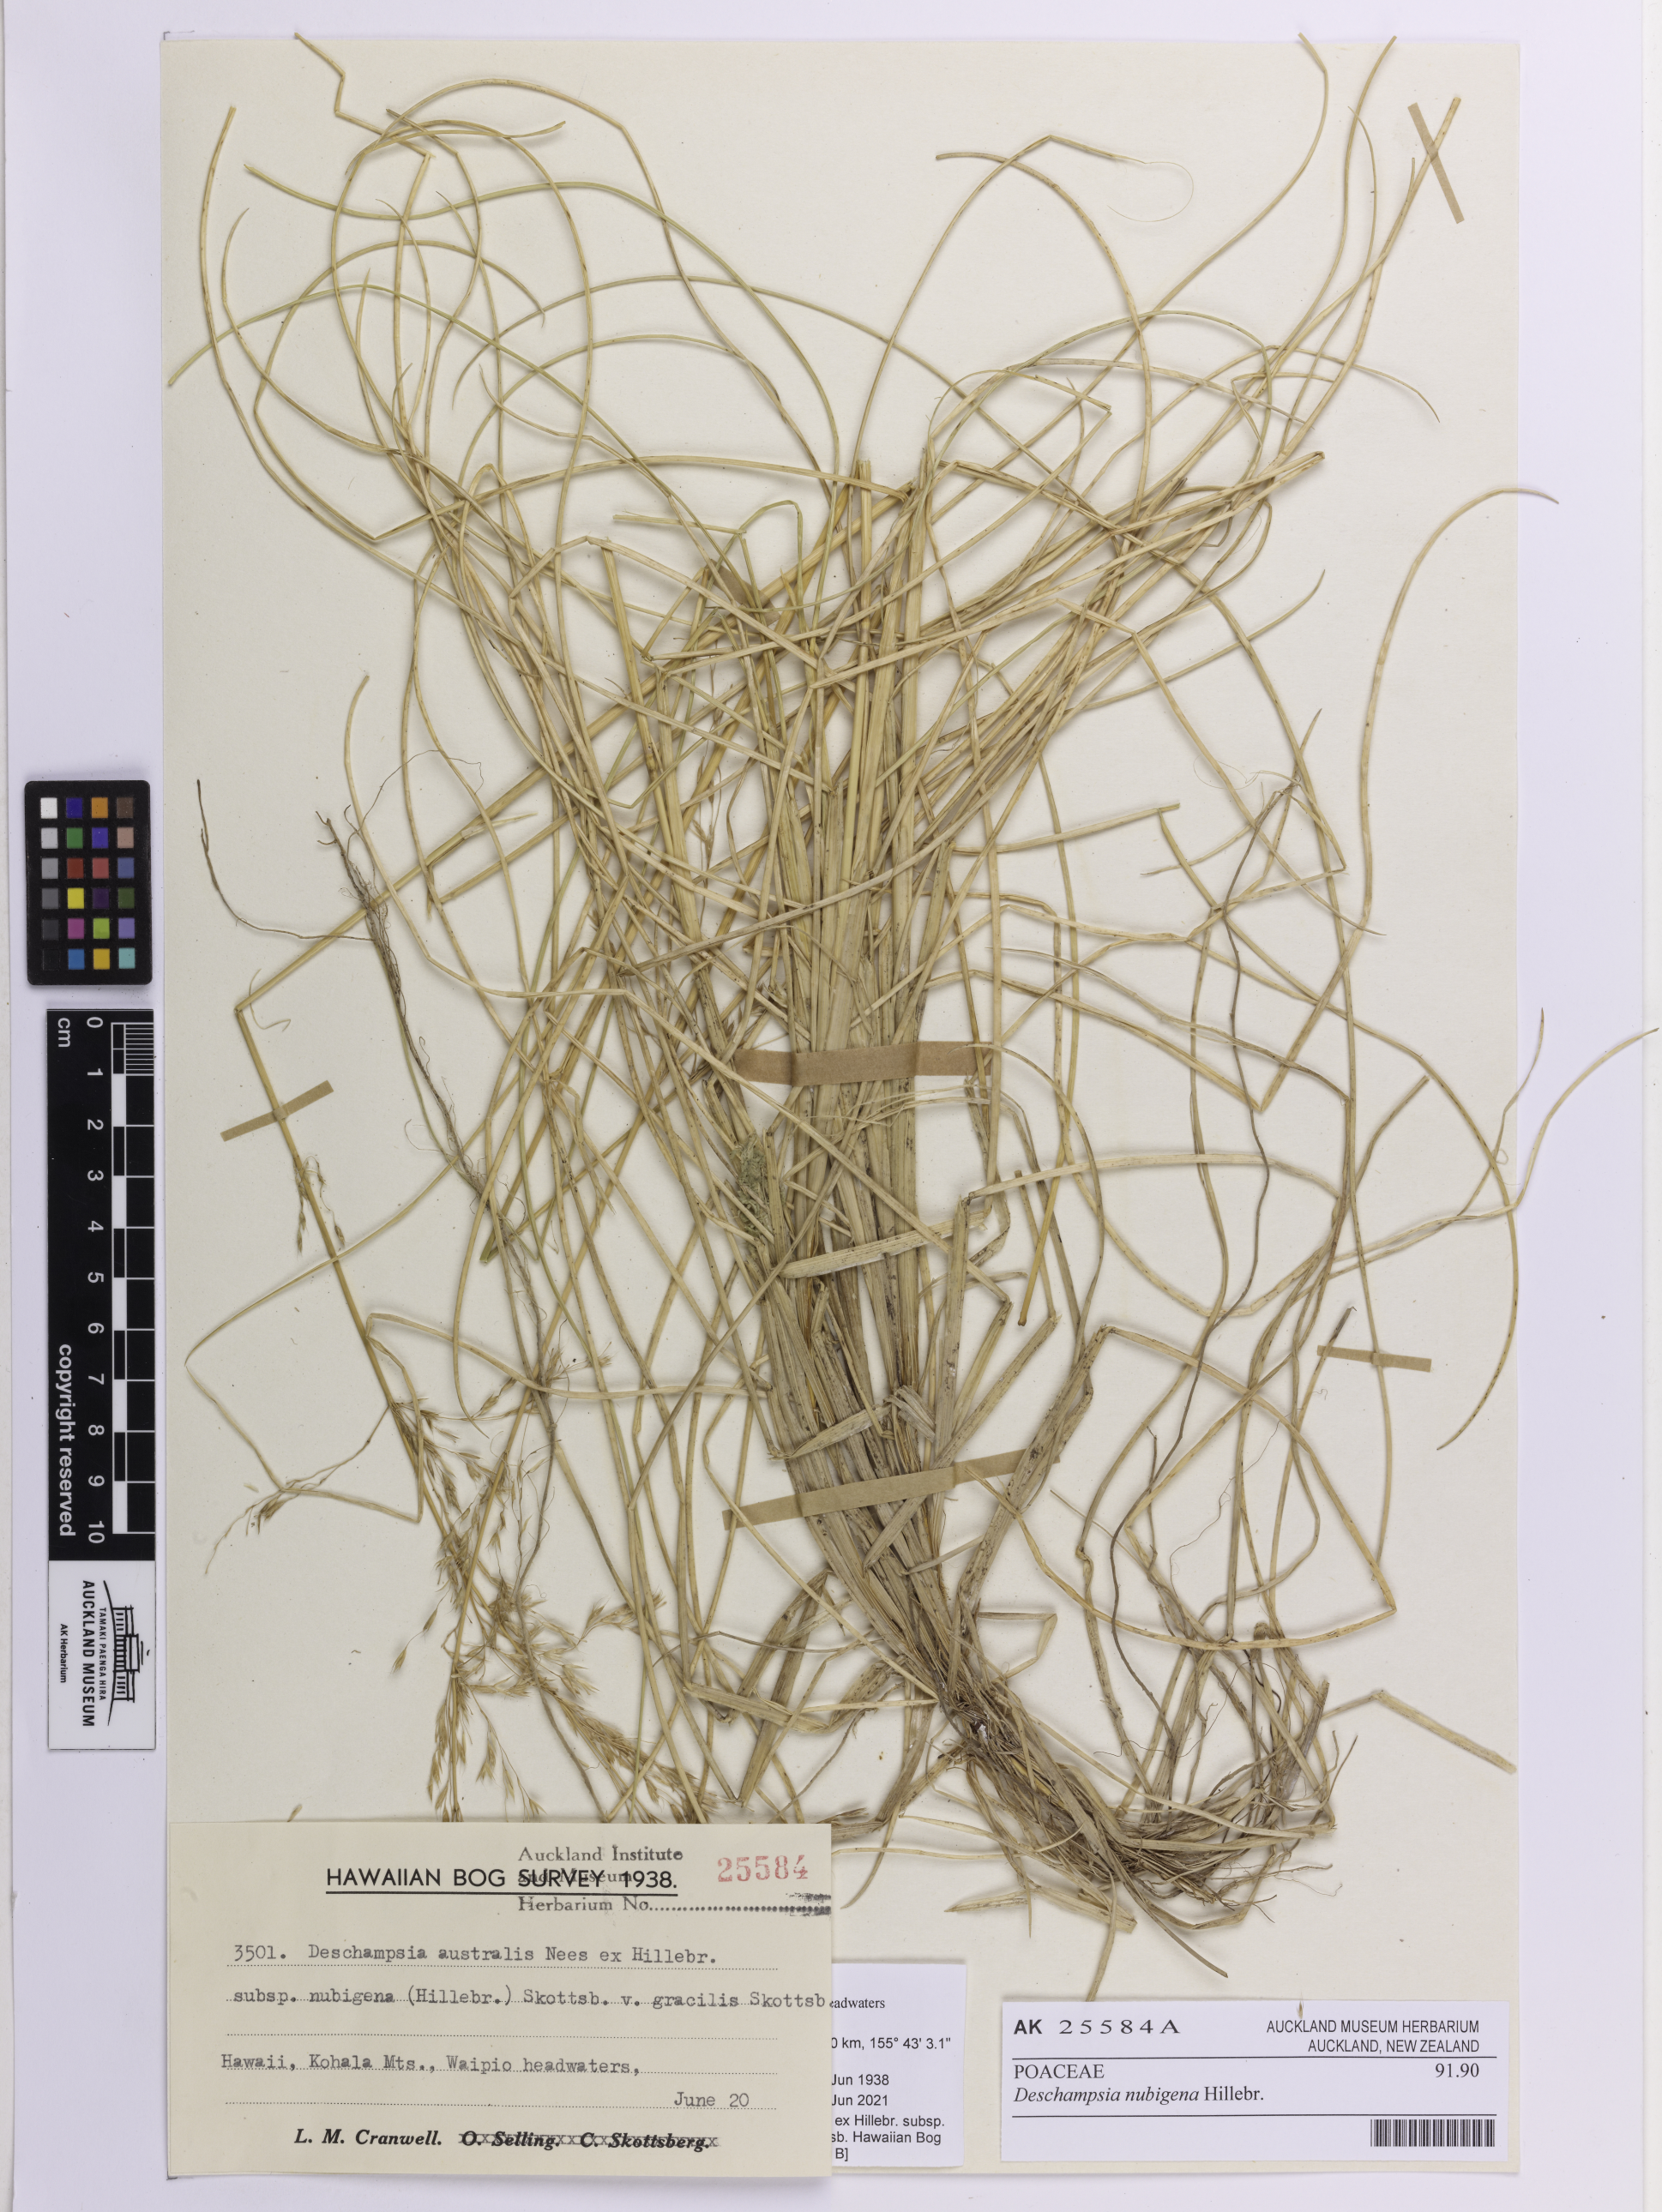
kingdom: Plantae
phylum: Tracheophyta
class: Liliopsida
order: Poales
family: Poaceae
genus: Deschampsia
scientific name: Deschampsia nubigena
